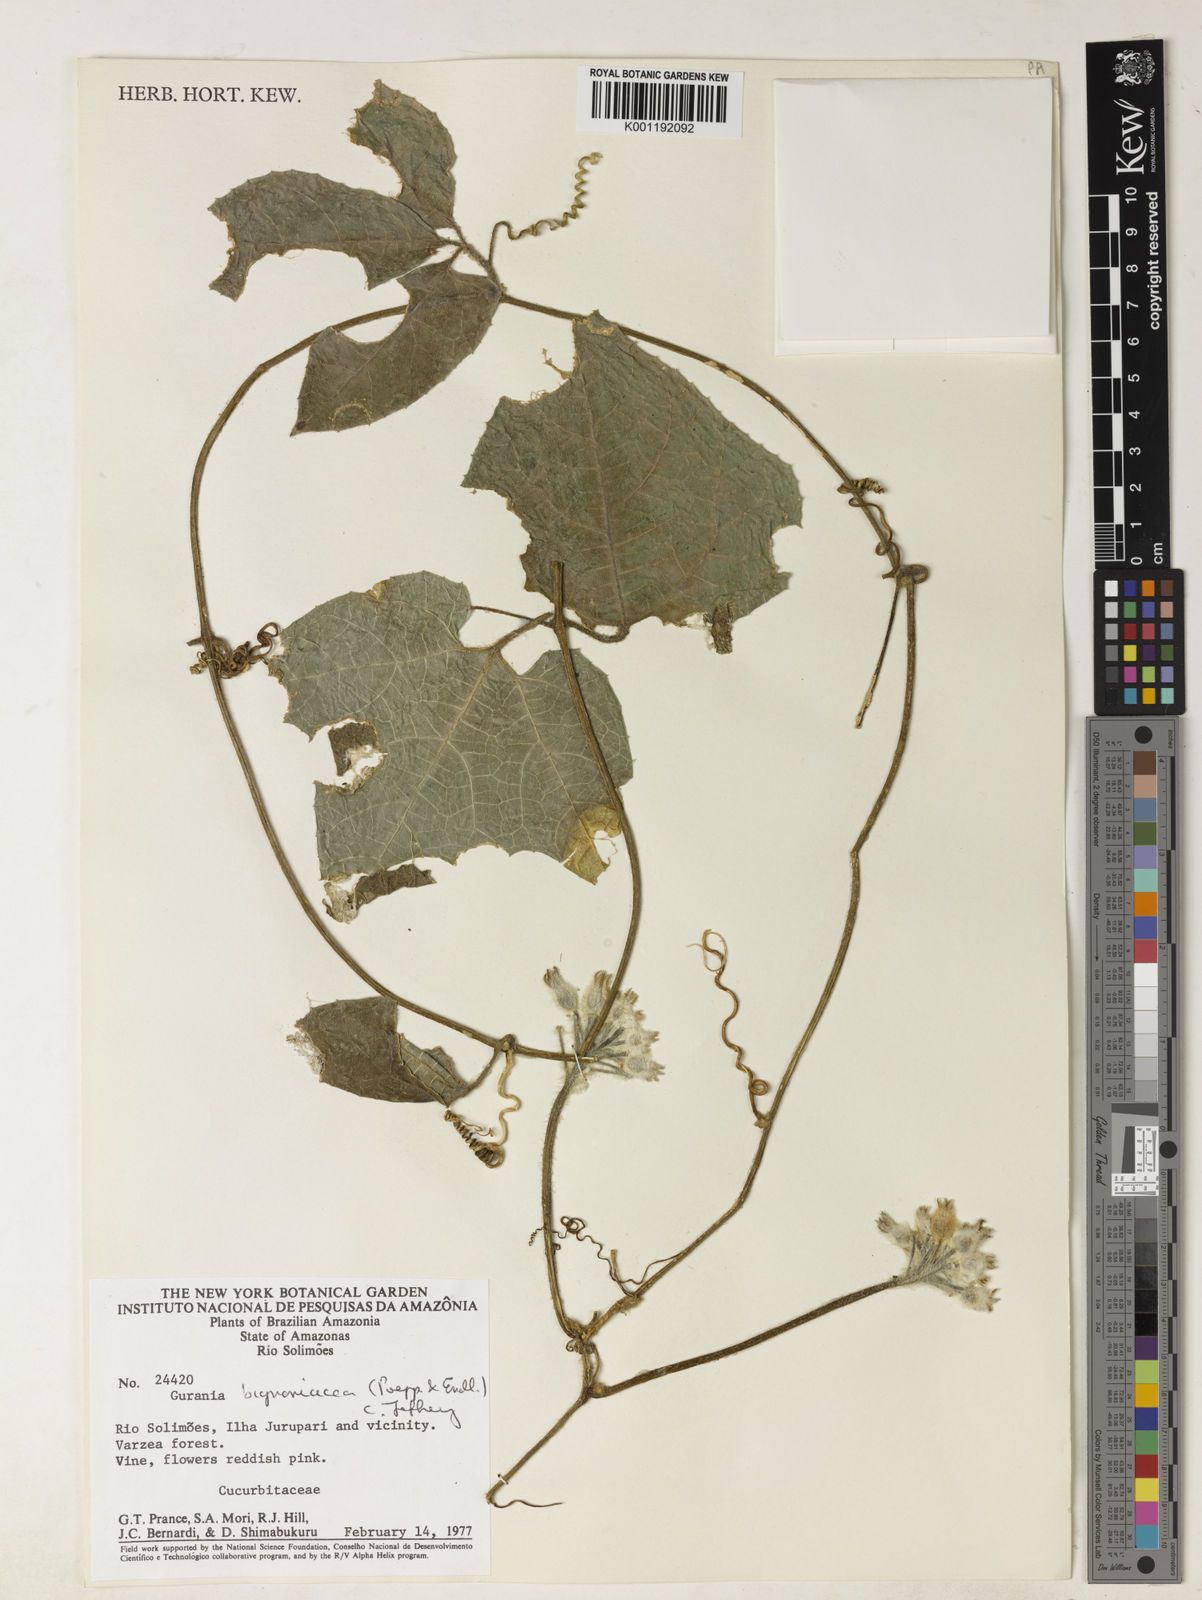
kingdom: Plantae
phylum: Tracheophyta
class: Magnoliopsida
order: Cucurbitales
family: Cucurbitaceae
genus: Gurania
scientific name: Gurania spruceana
